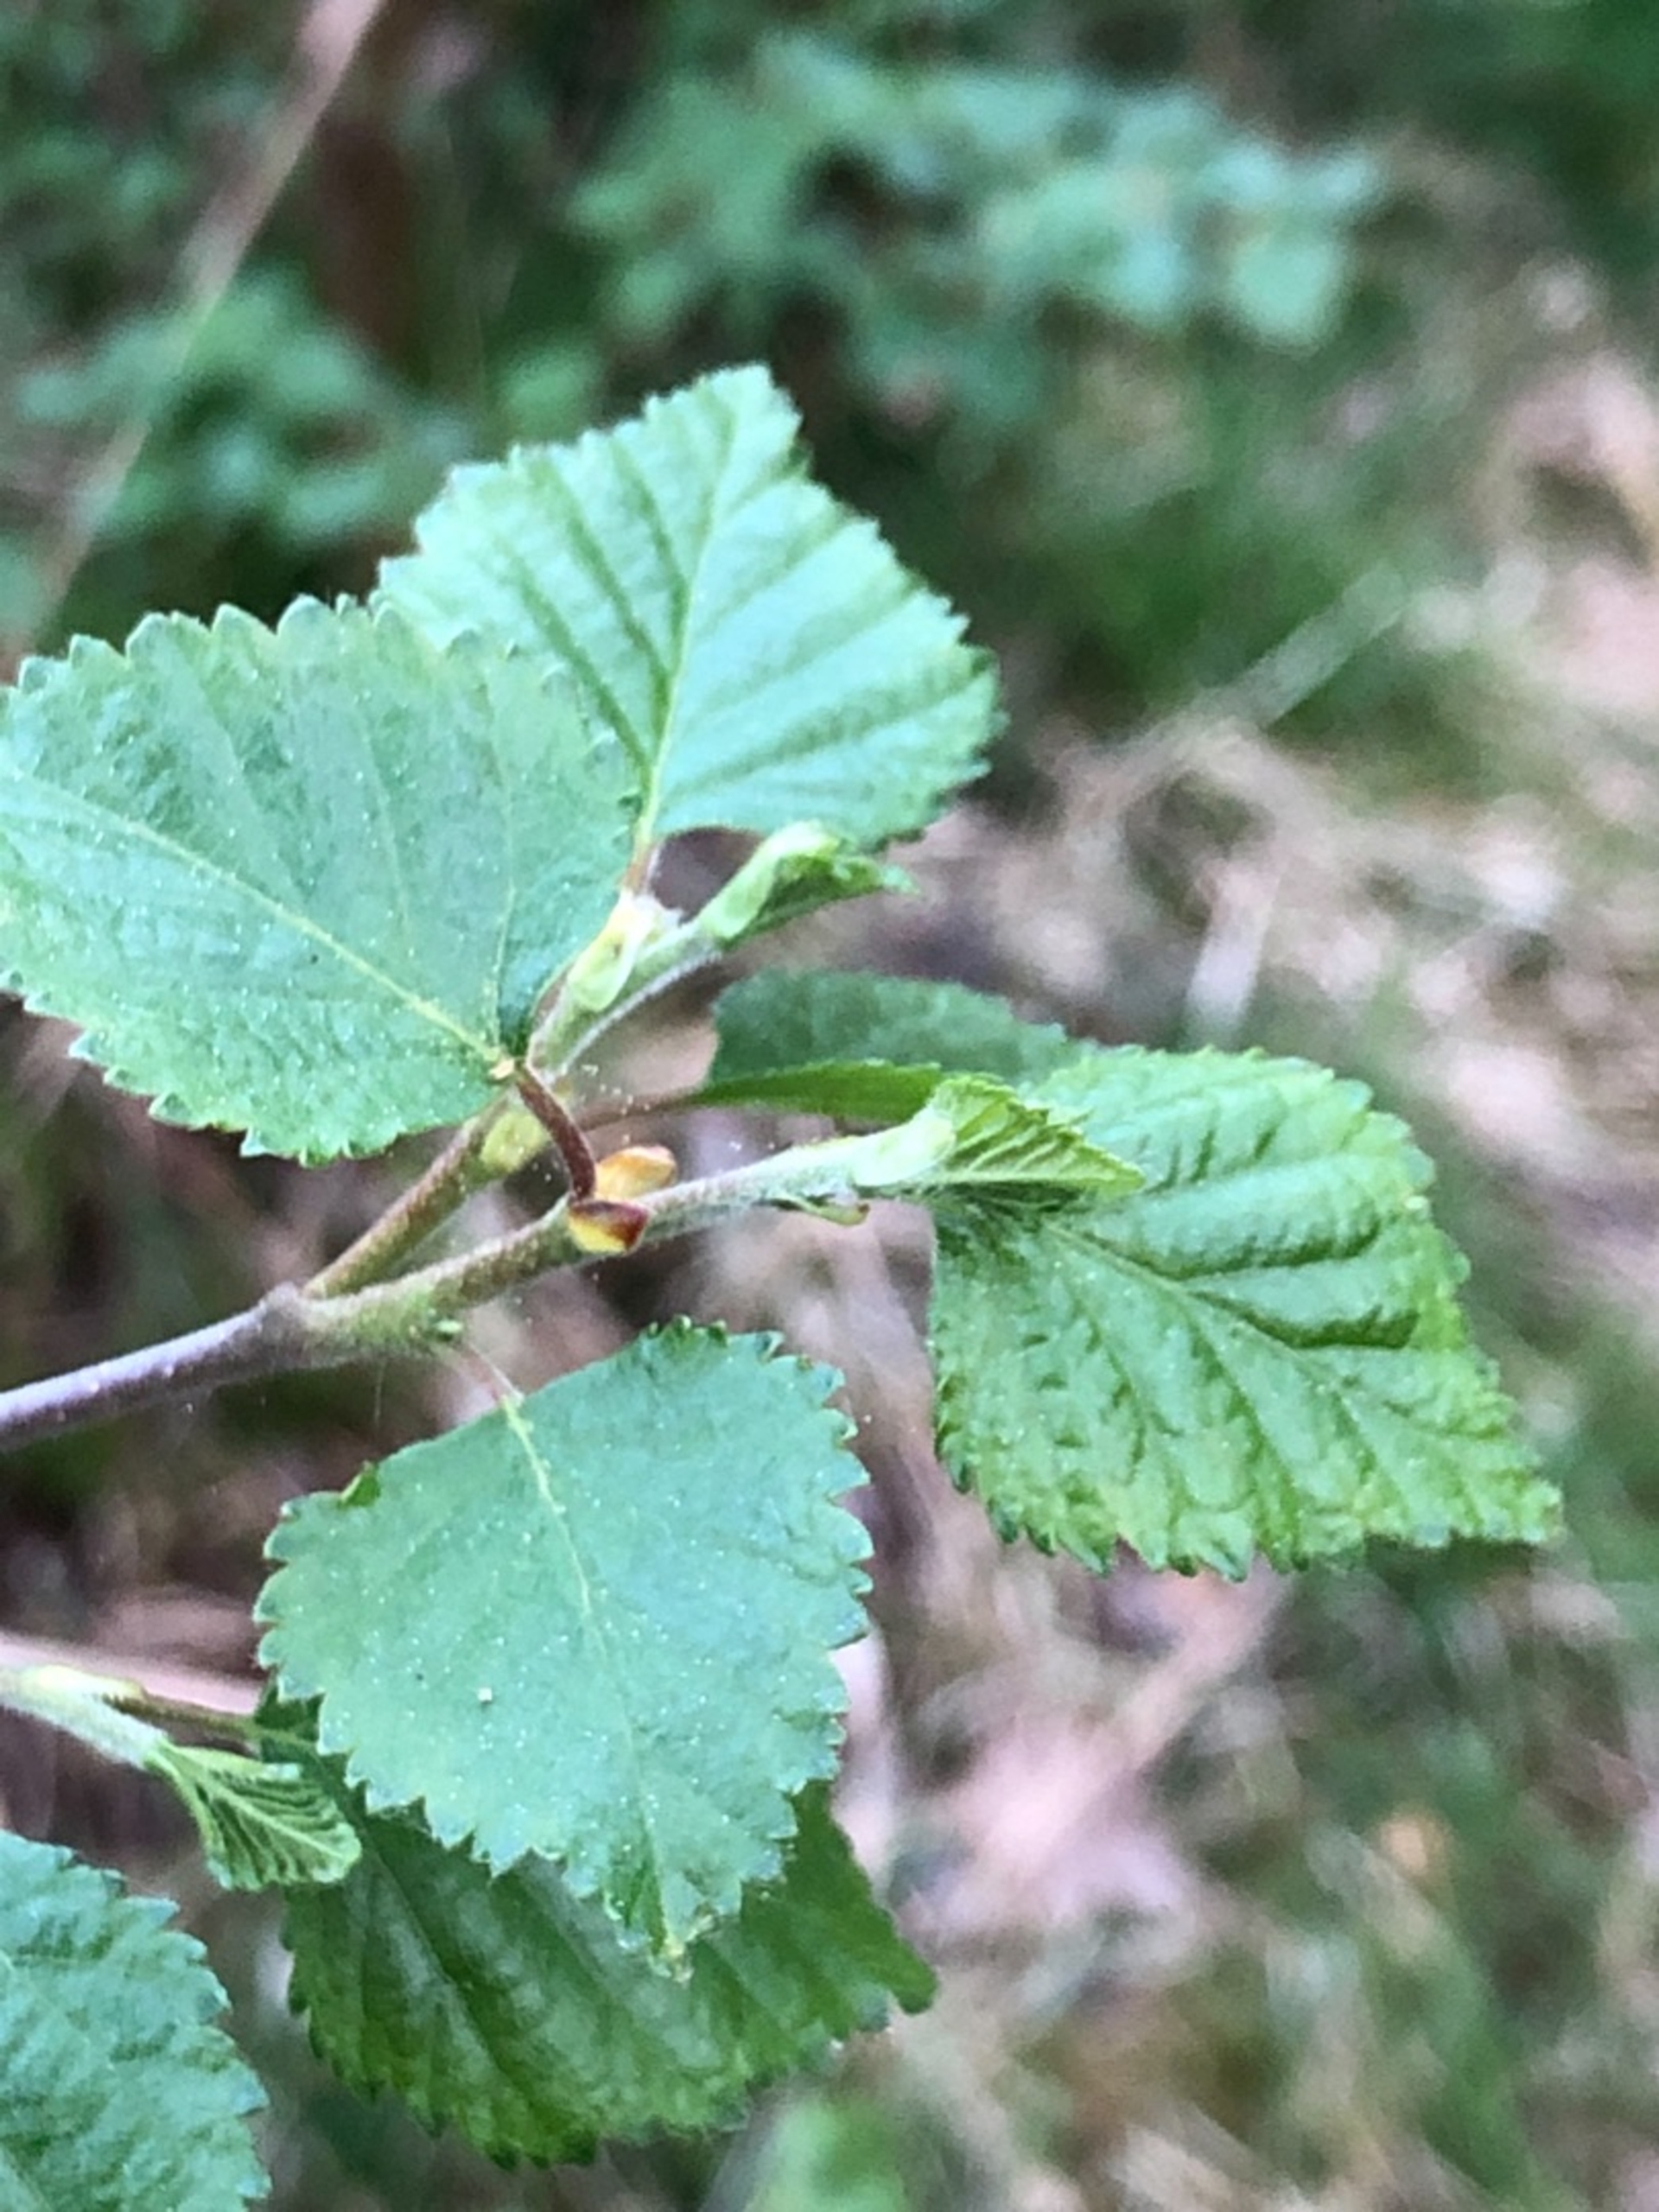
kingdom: Plantae
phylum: Tracheophyta
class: Magnoliopsida
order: Fagales
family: Betulaceae
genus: Betula
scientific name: Betula pubescens
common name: Dun-birk
